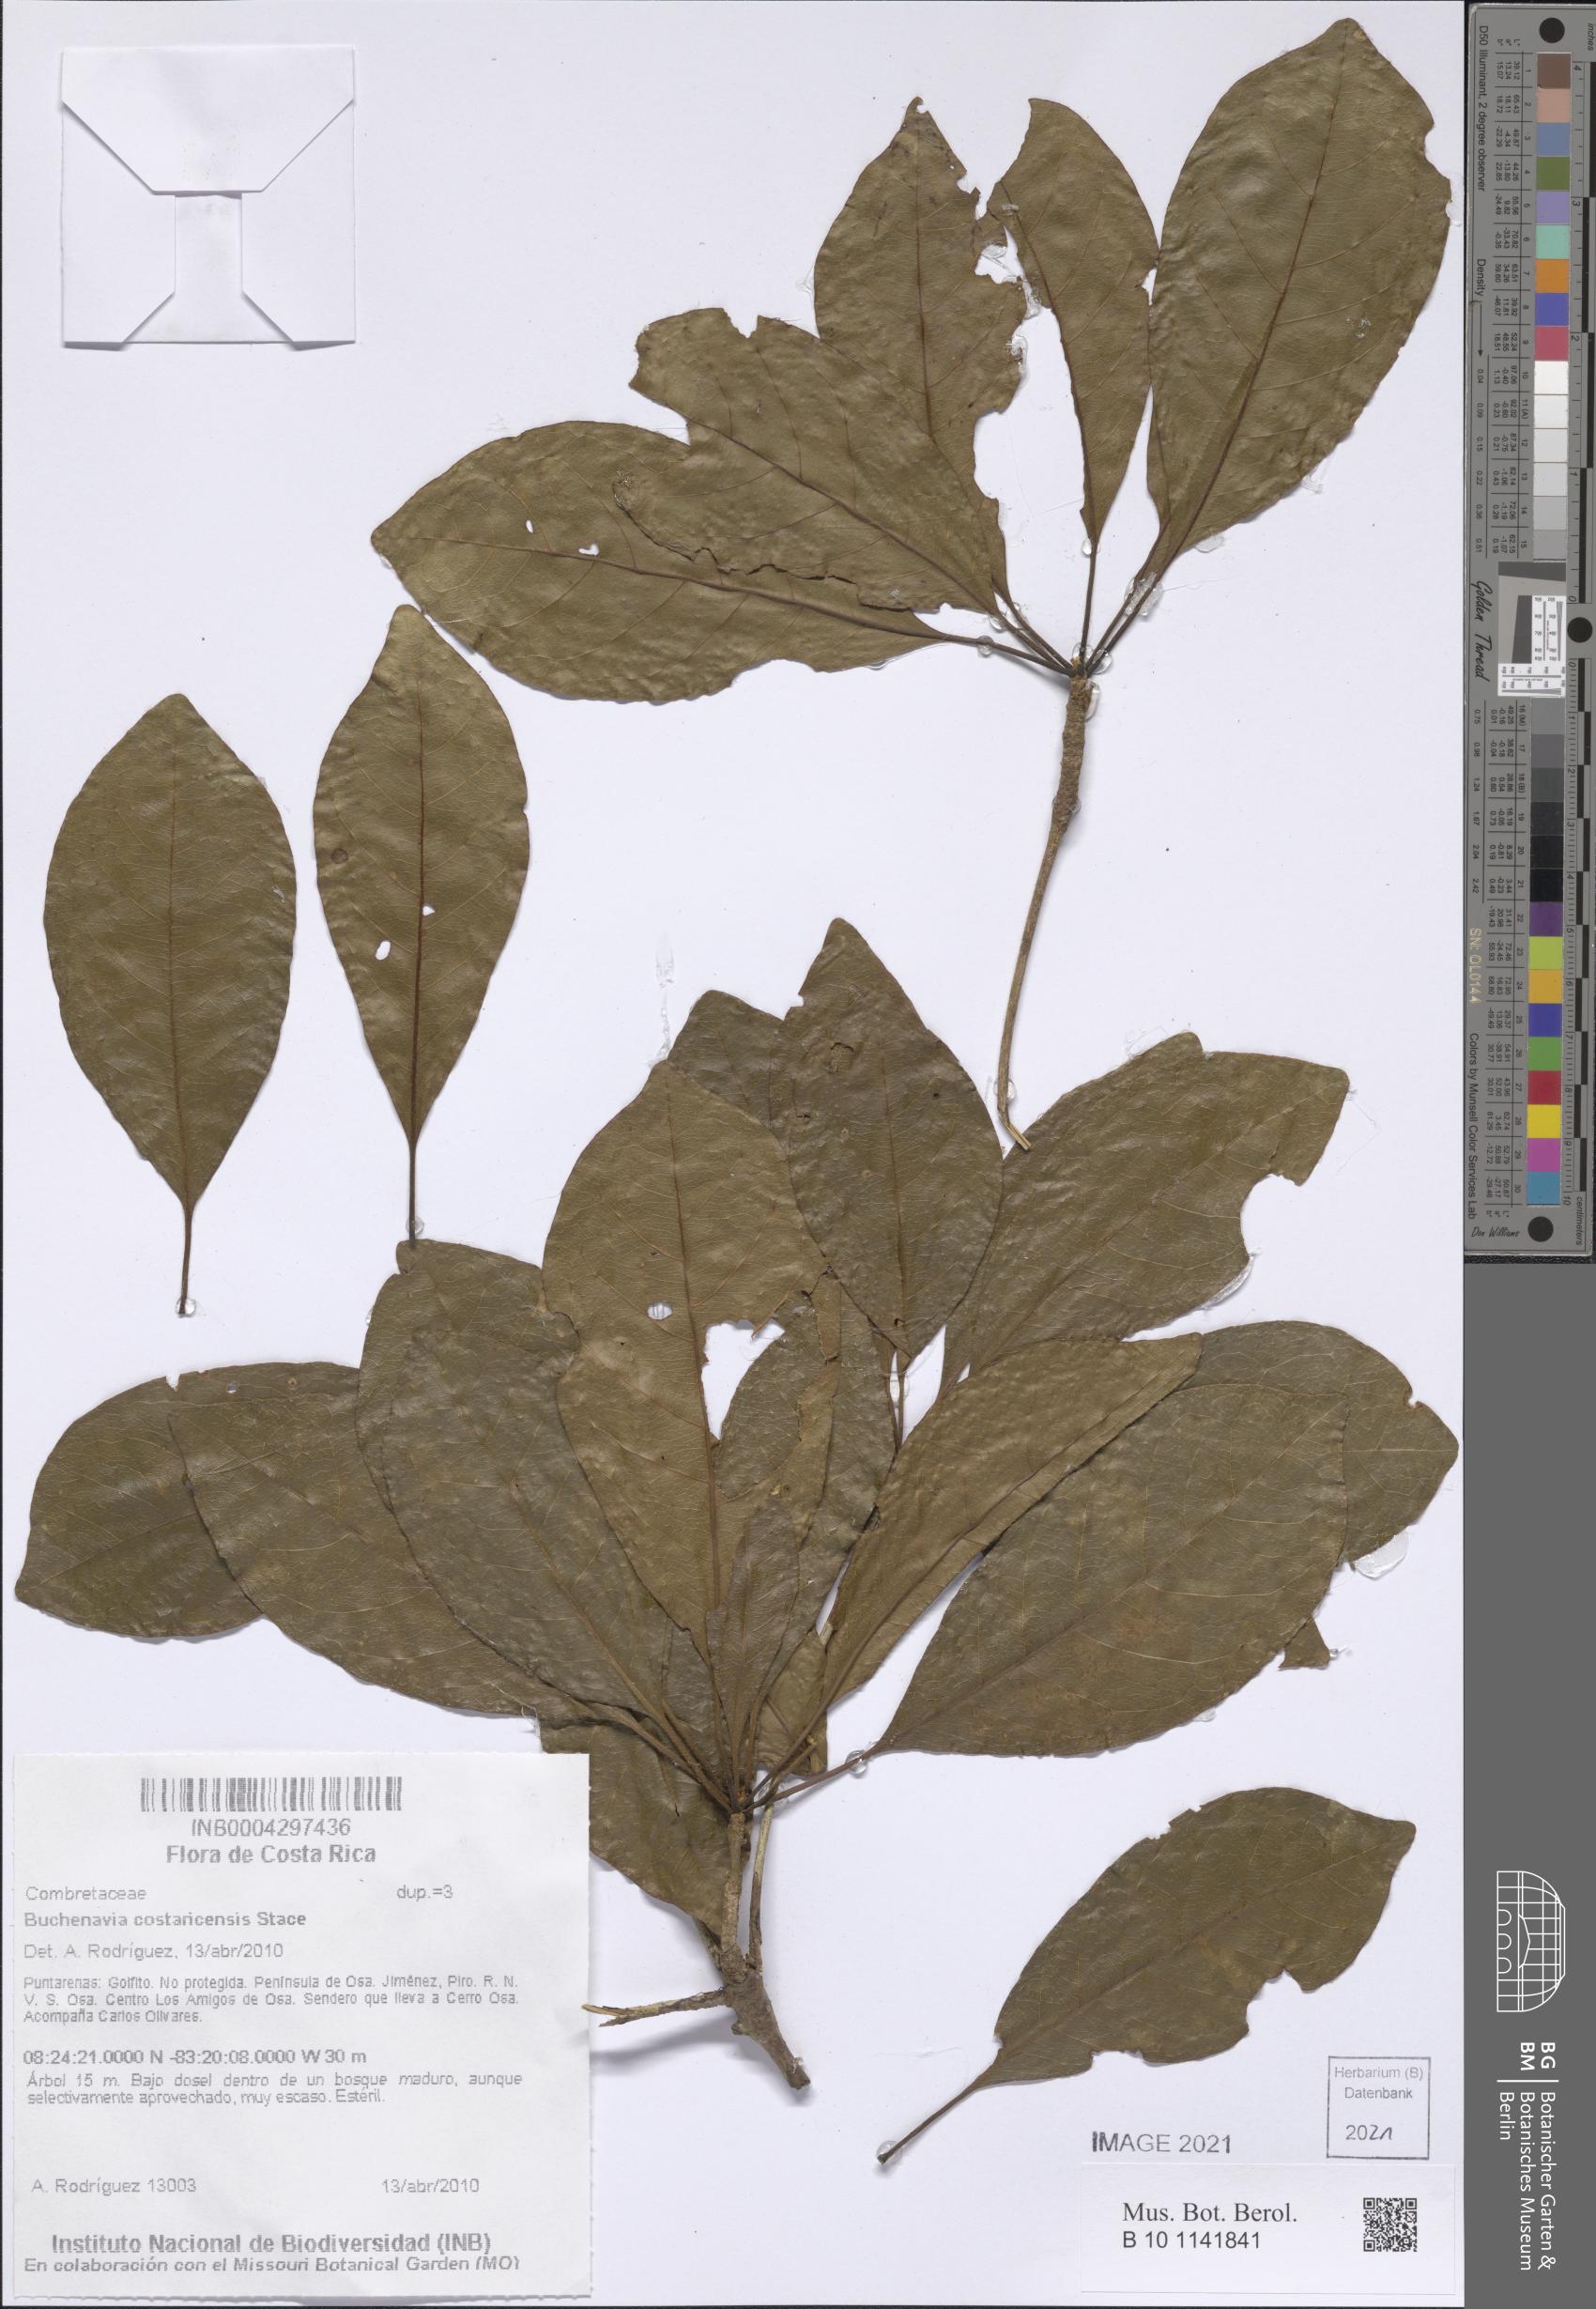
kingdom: Plantae
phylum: Tracheophyta
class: Magnoliopsida
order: Myrtales
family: Combretaceae
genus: Terminalia
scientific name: Terminalia costaricensis
